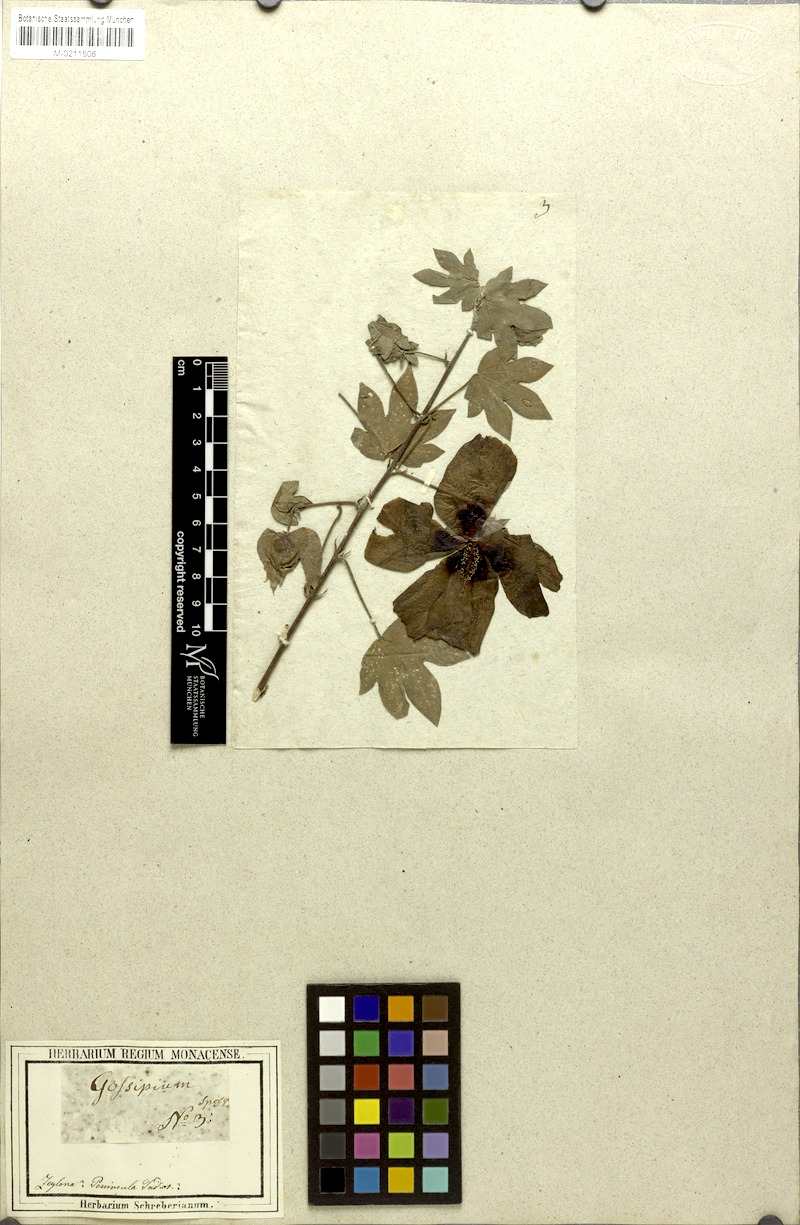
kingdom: Plantae
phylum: Tracheophyta
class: Magnoliopsida
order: Malvales
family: Malvaceae
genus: Gossypium
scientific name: Gossypium arboreum
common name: Tree cotton
